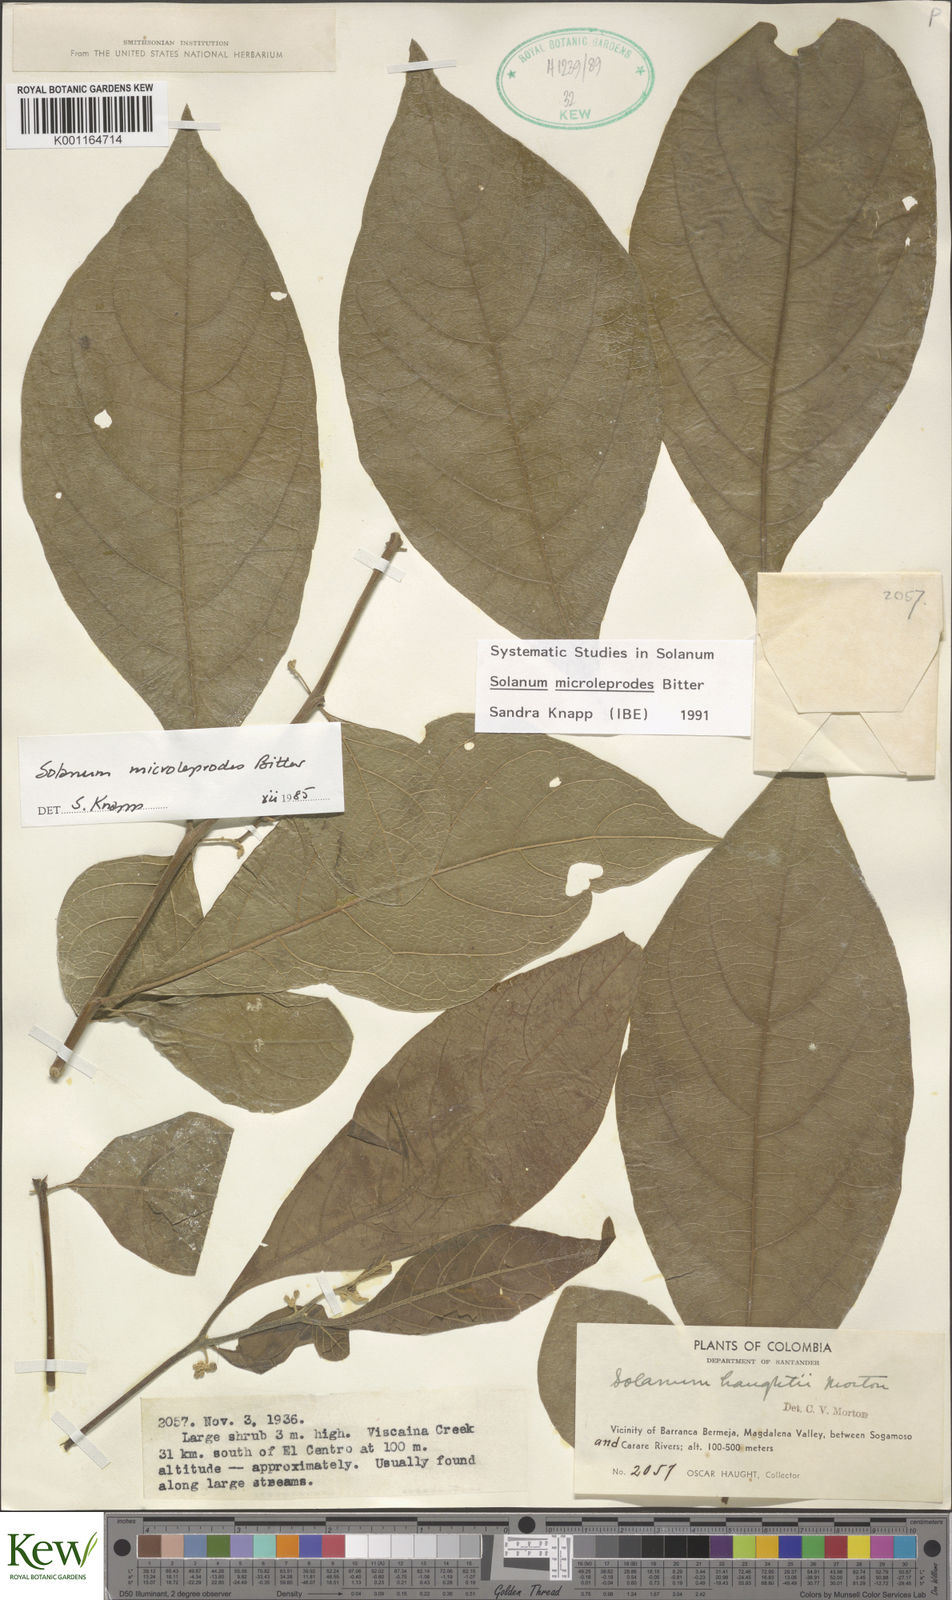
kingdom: Plantae
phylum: Tracheophyta
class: Magnoliopsida
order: Solanales
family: Solanaceae
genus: Solanum
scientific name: Solanum microleprodes
